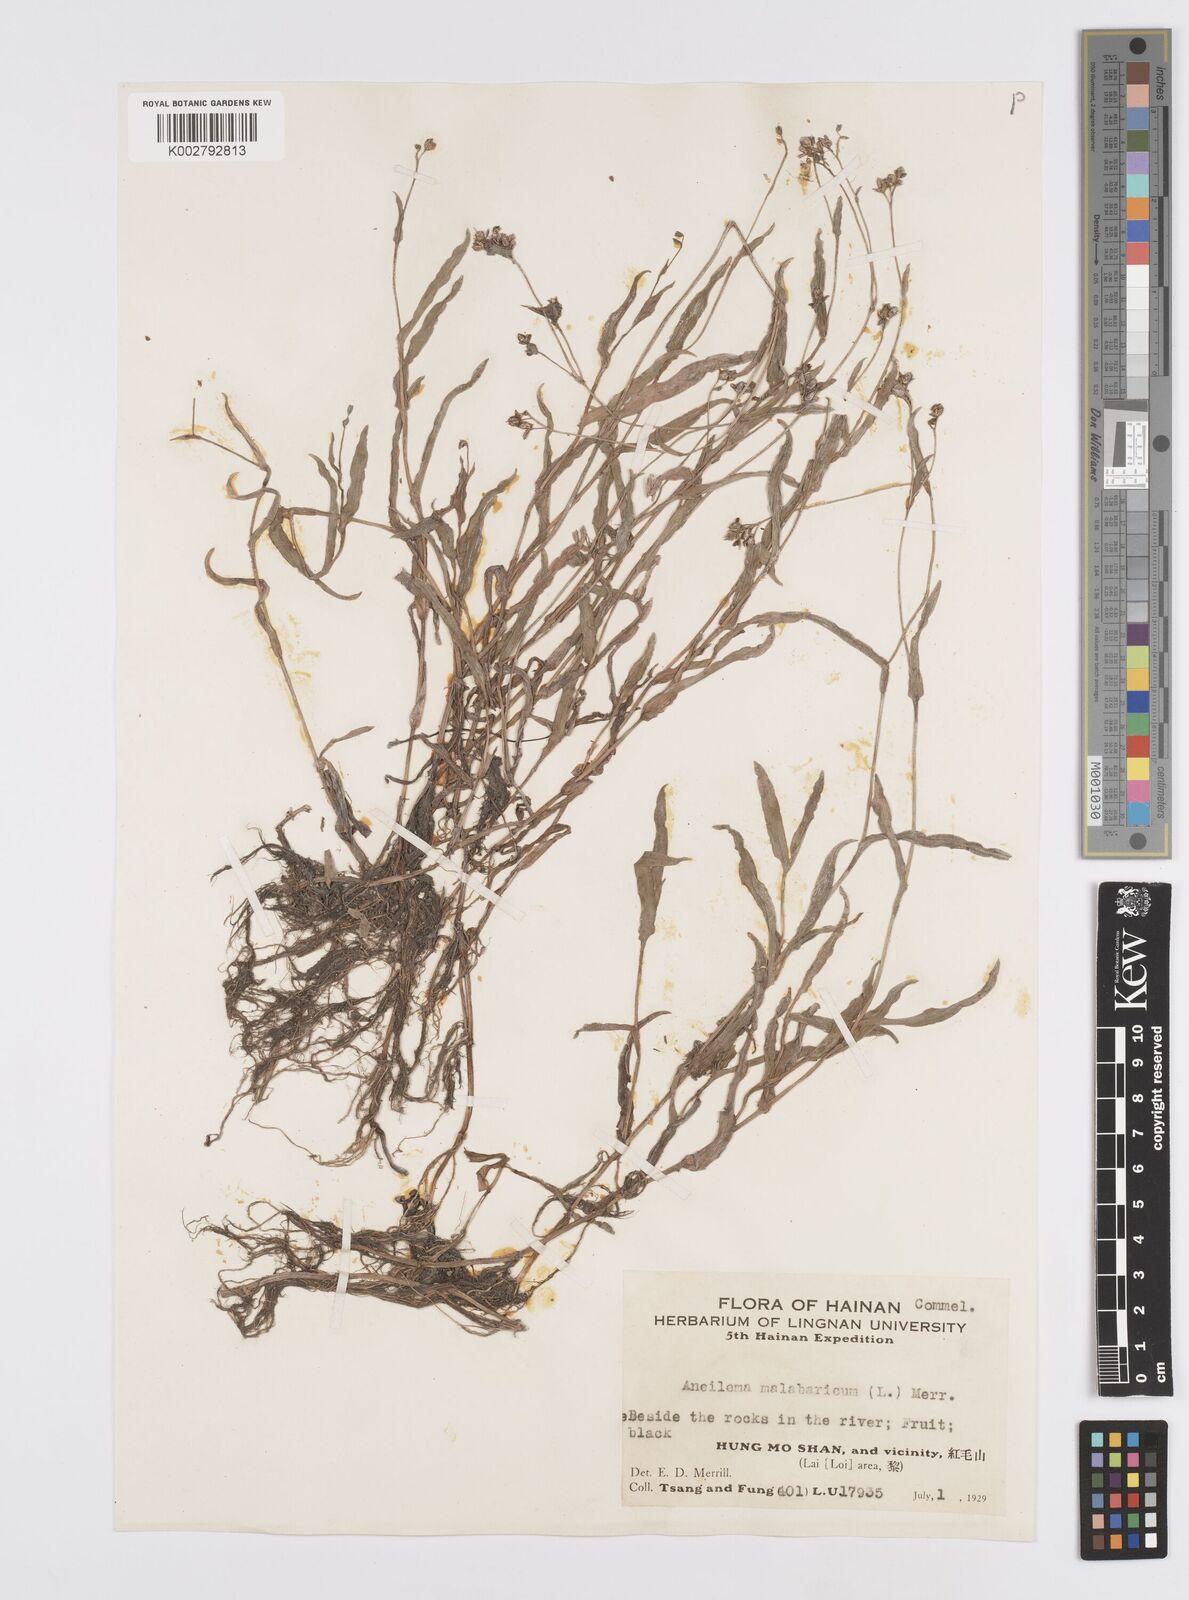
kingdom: Plantae
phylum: Tracheophyta
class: Liliopsida
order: Commelinales
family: Commelinaceae
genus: Murdannia
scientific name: Murdannia
